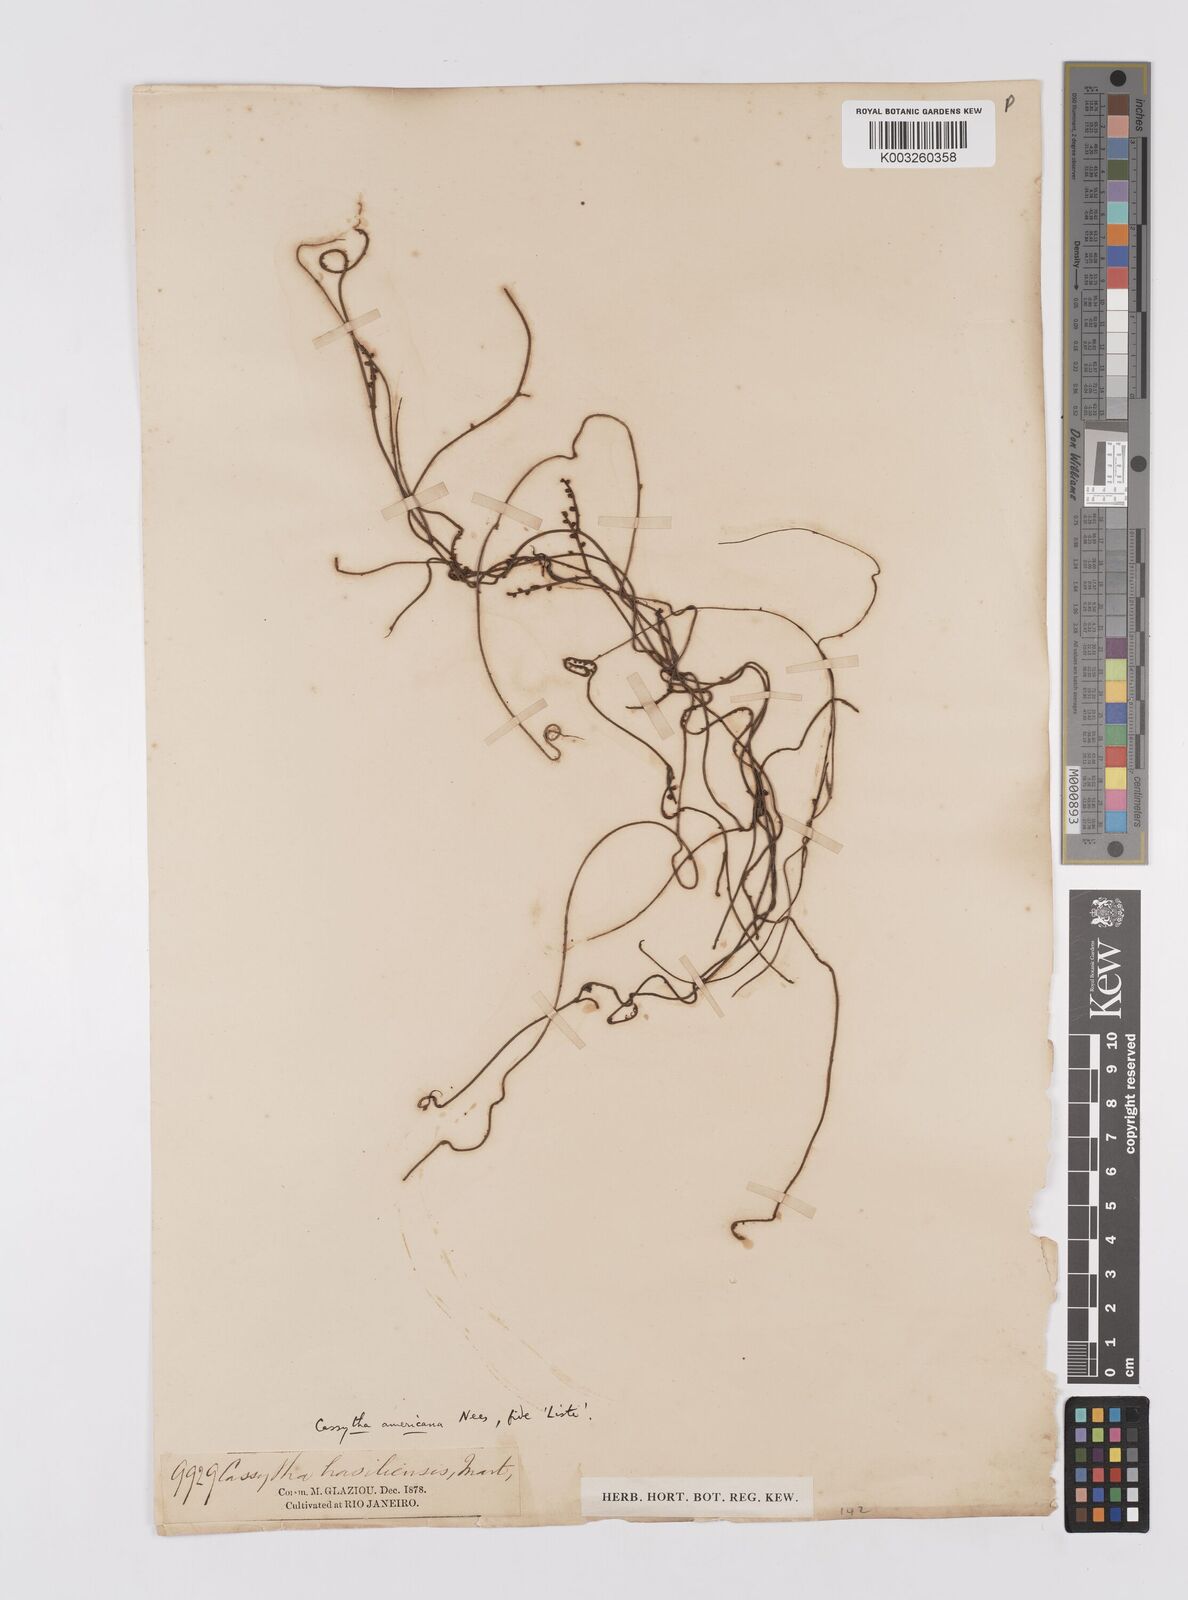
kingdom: Plantae
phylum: Tracheophyta
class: Magnoliopsida
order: Laurales
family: Lauraceae
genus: Cassytha
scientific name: Cassytha filiformis
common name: Dodder-laurel
